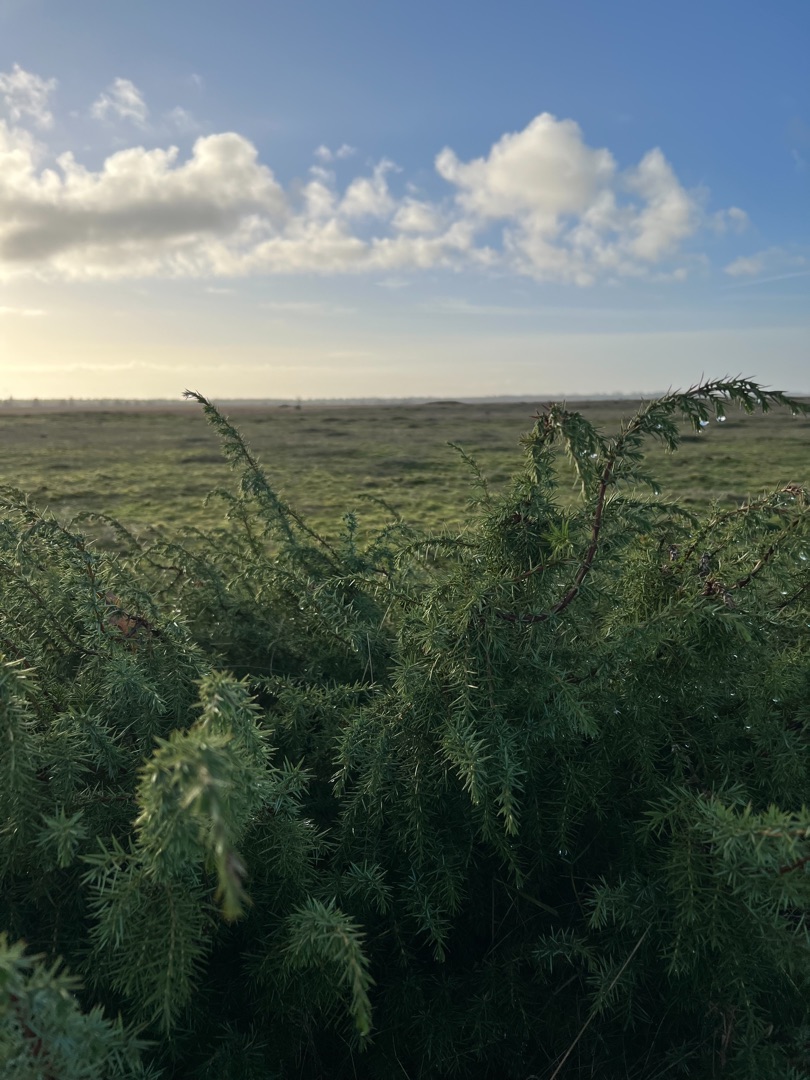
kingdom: Plantae
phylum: Tracheophyta
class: Pinopsida
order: Pinales
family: Cupressaceae
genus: Juniperus
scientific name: Juniperus communis
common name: Almindelig ene
